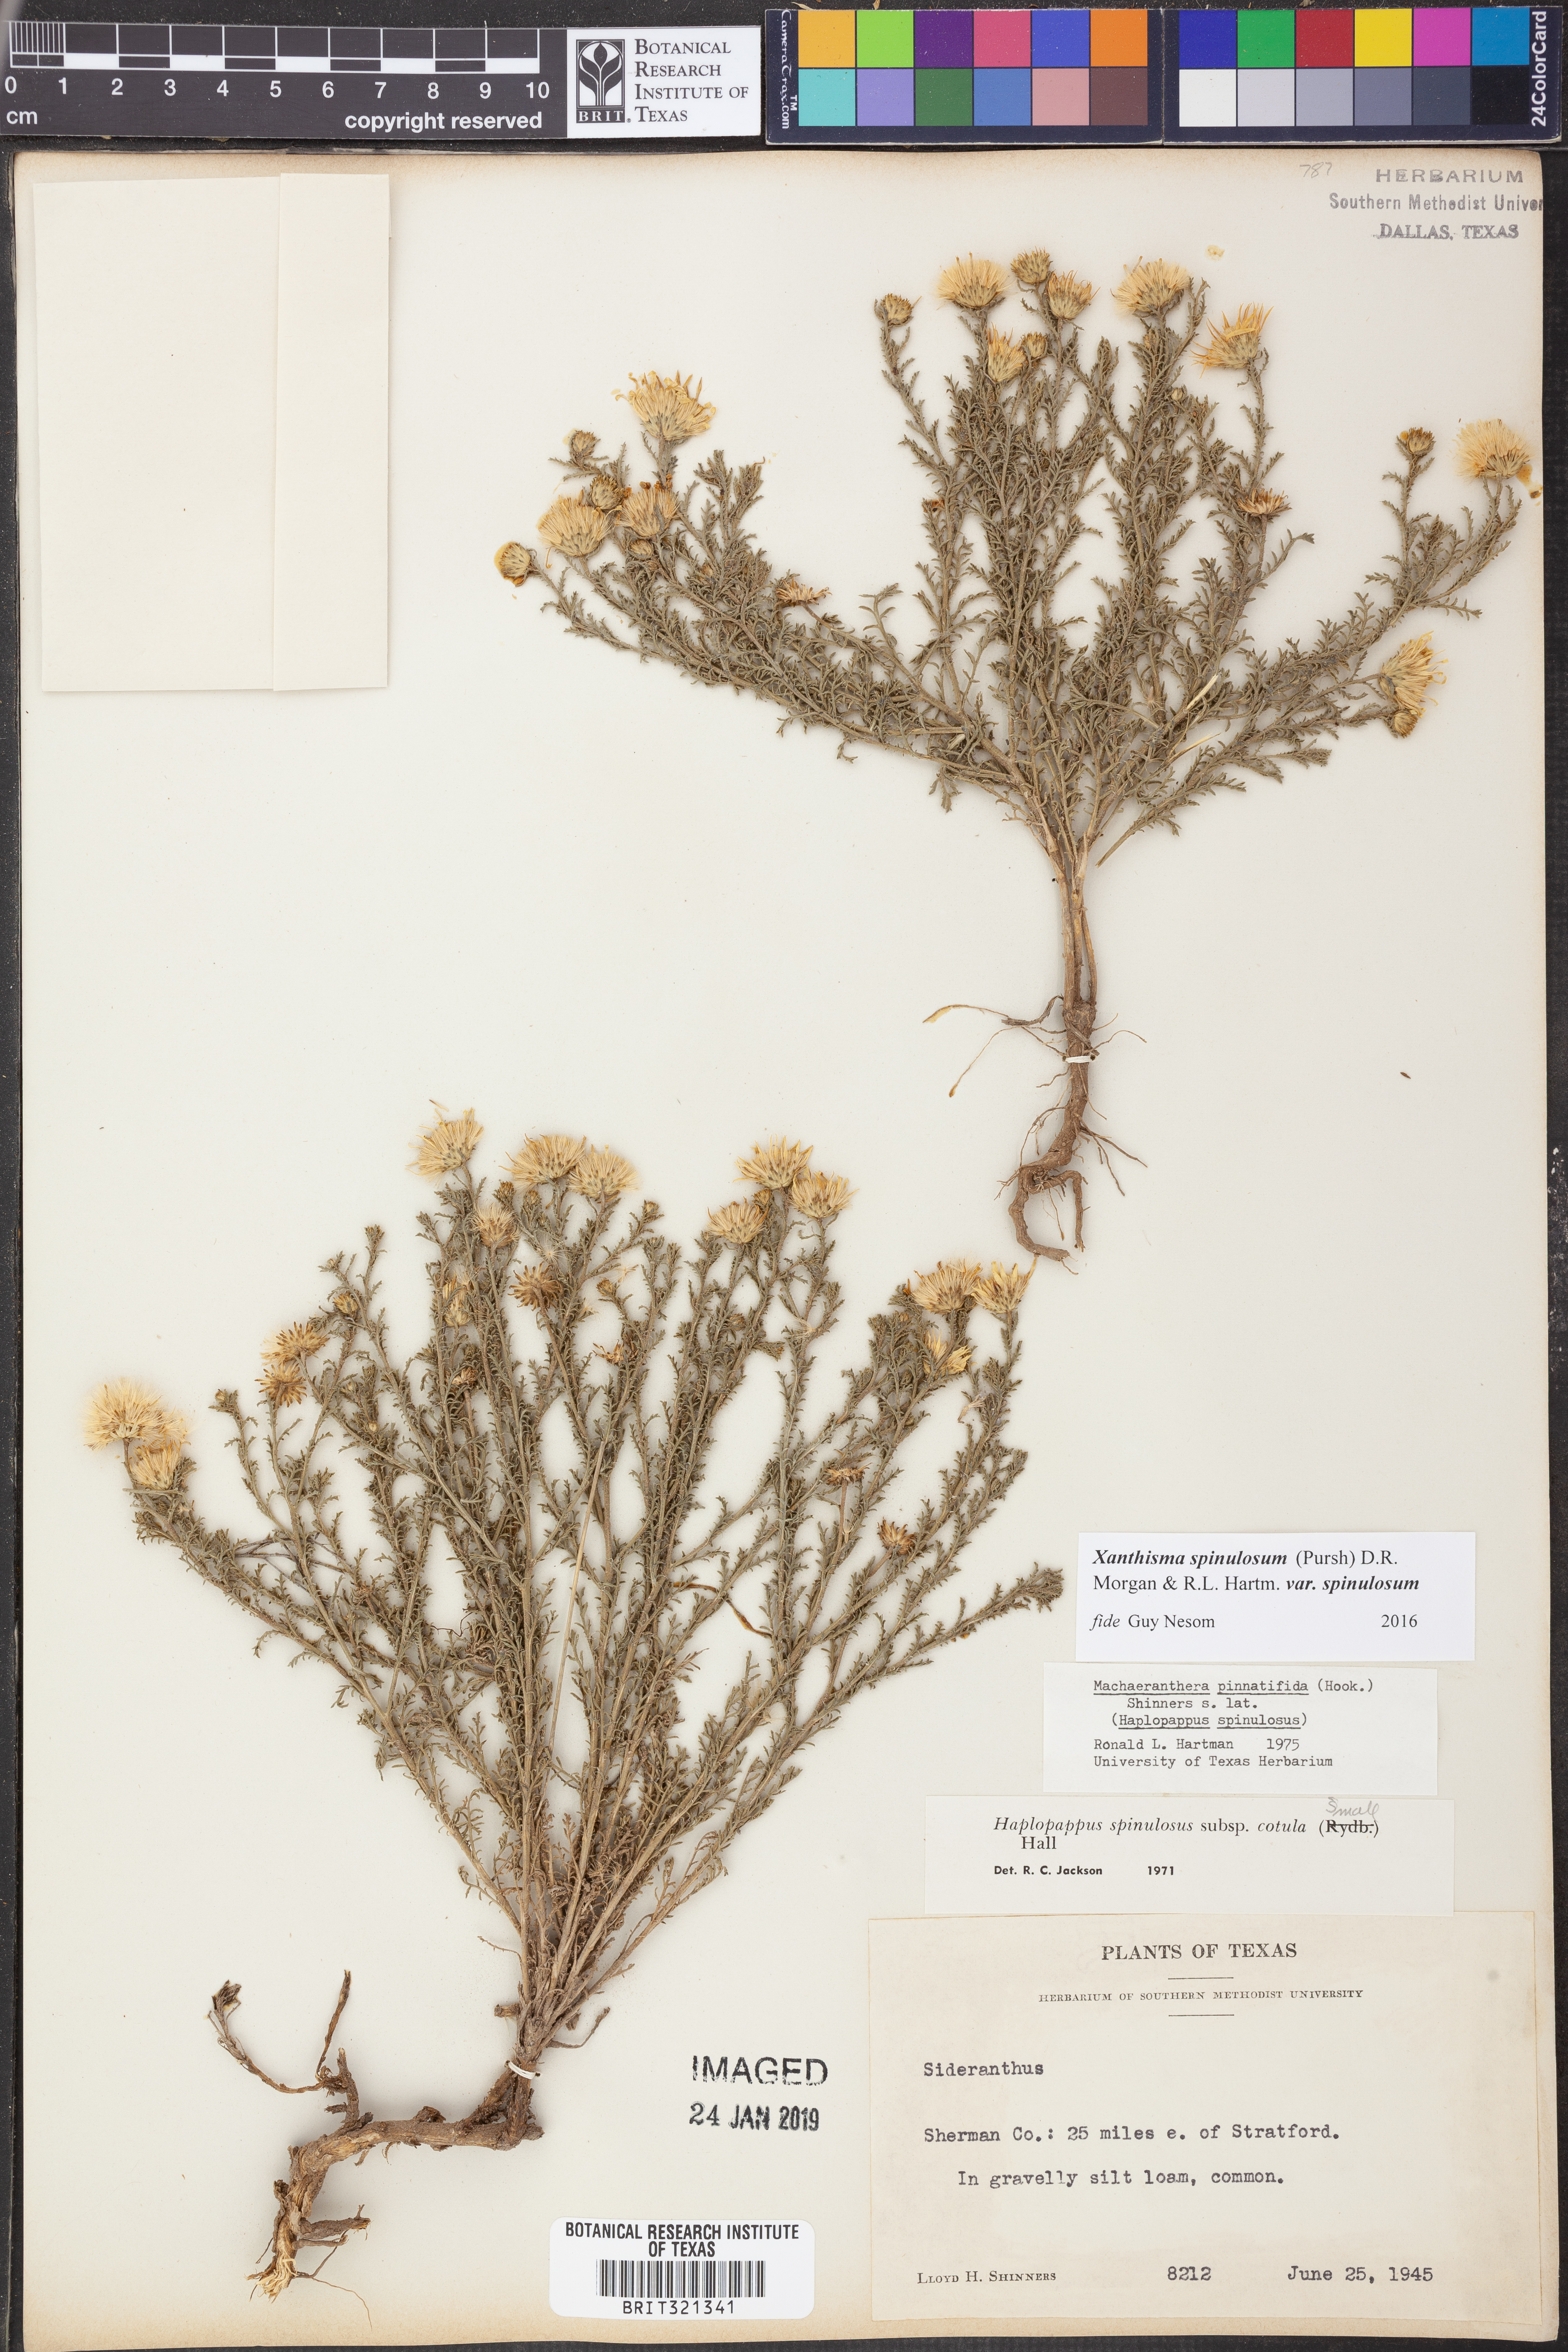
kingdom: Plantae
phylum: Tracheophyta
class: Magnoliopsida
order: Asterales
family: Asteraceae
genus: Xanthisma
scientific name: Xanthisma spinulosum
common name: Spiny goldenweed
